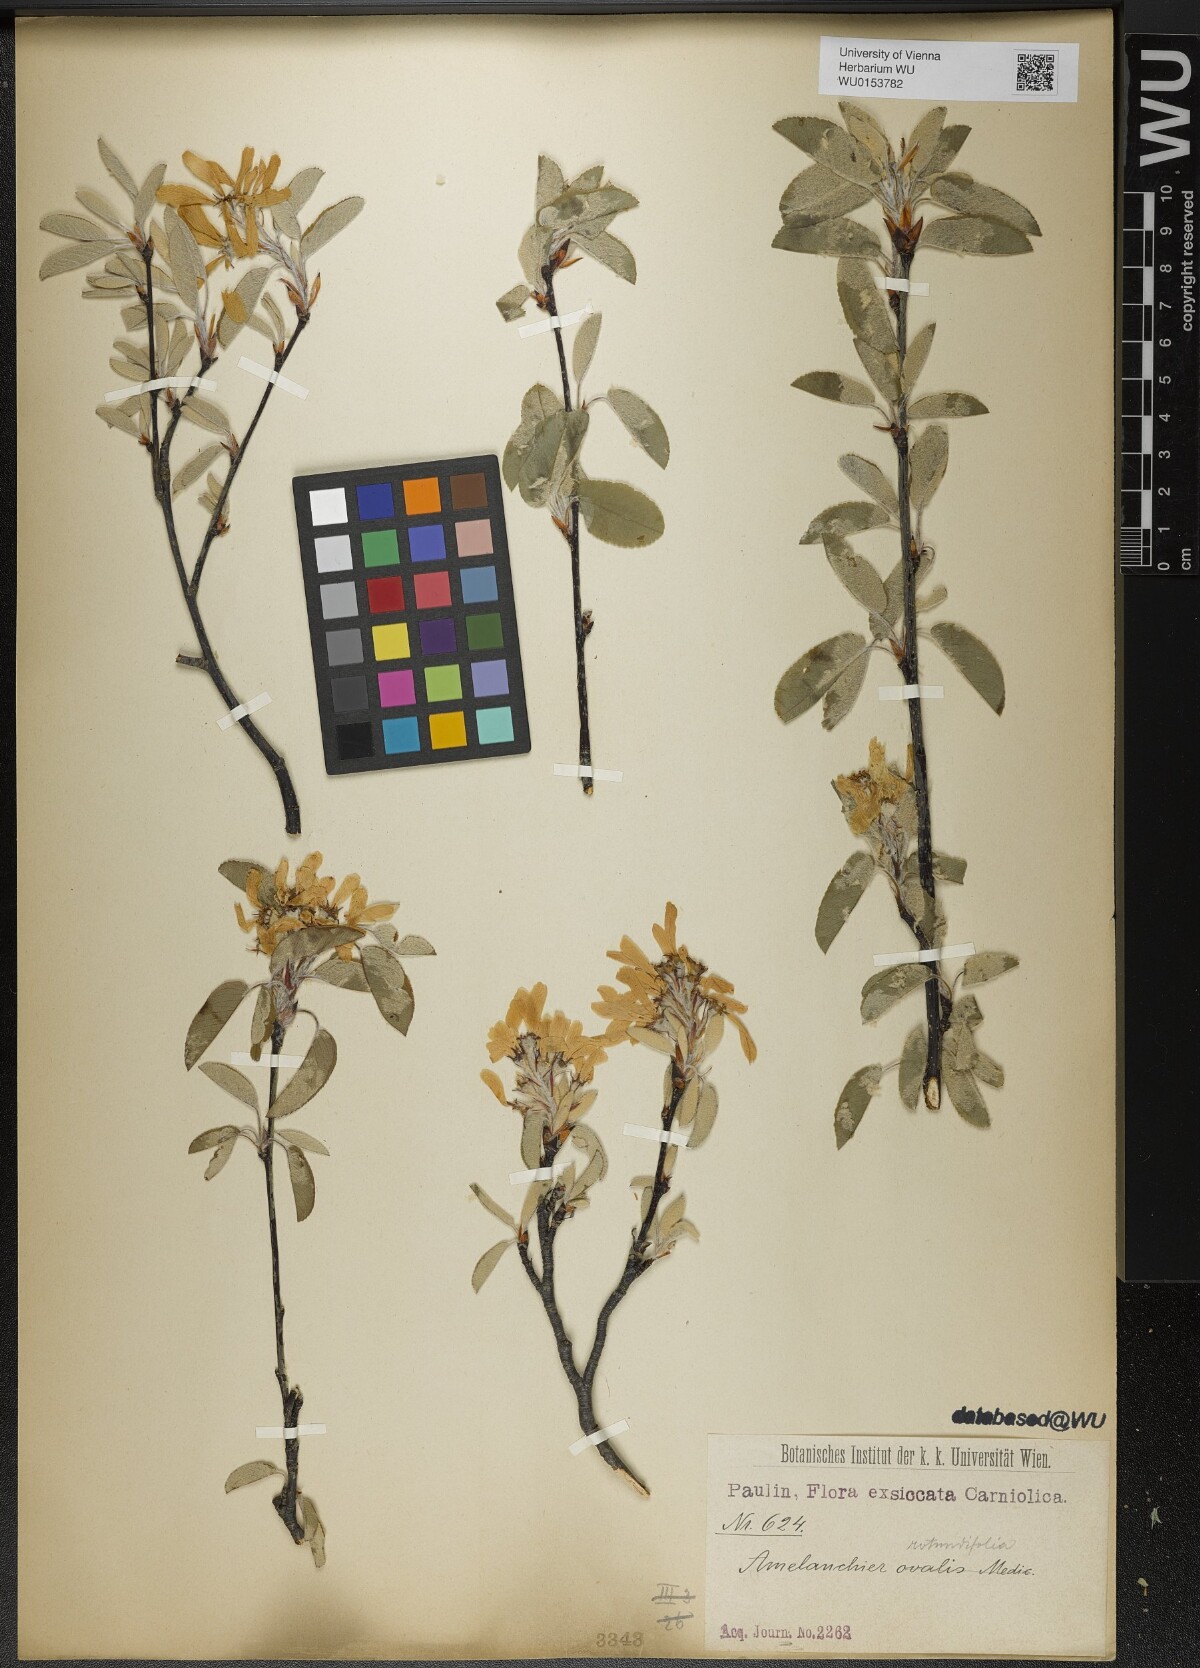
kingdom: Plantae
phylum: Tracheophyta
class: Magnoliopsida
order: Rosales
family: Rosaceae
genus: Amelanchier
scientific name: Amelanchier ovalis
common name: Serviceberry
